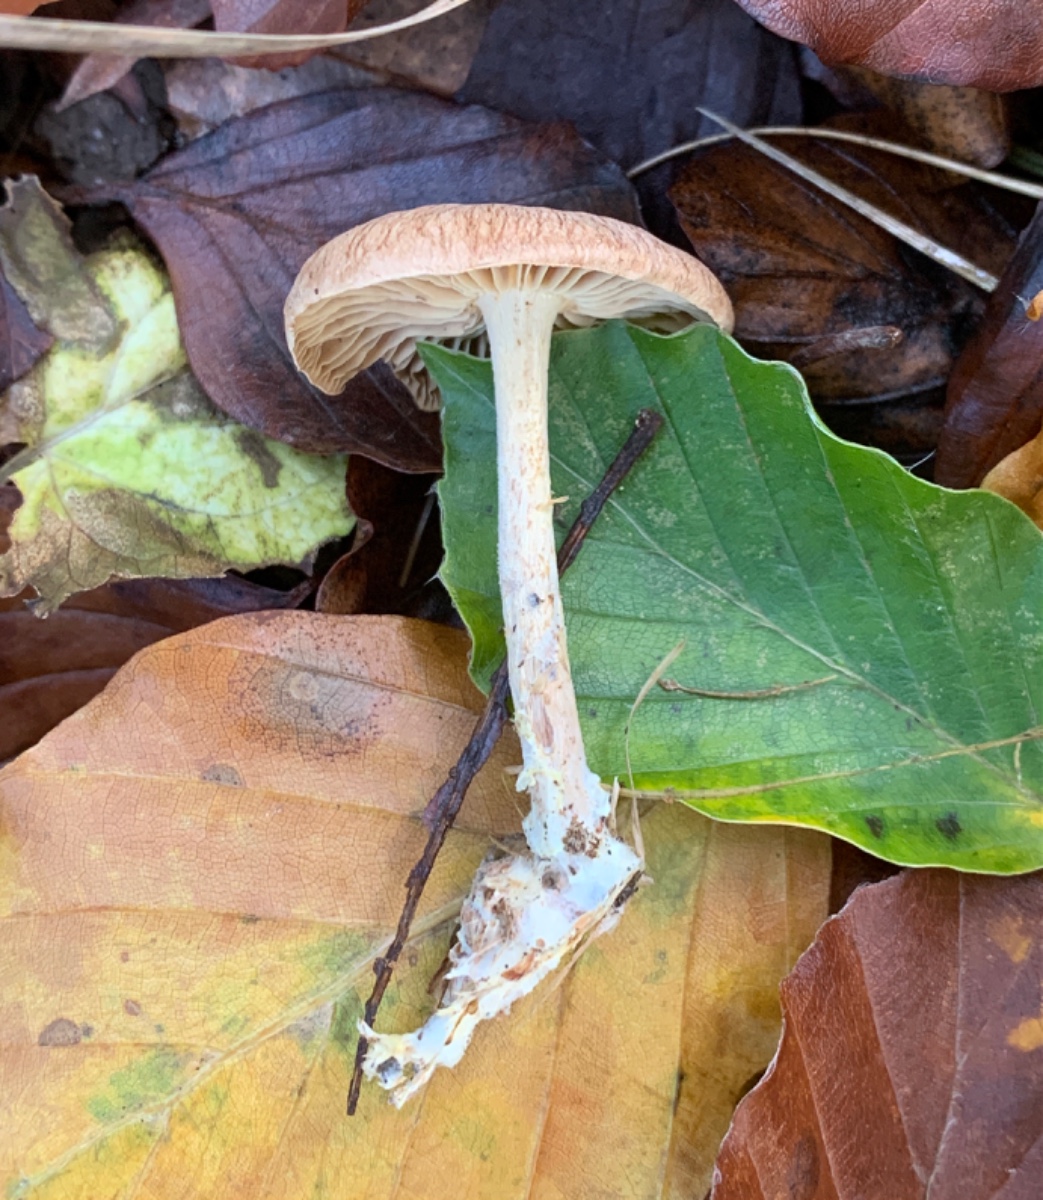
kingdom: Fungi
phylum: Basidiomycota
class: Agaricomycetes
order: Agaricales
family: Omphalotaceae
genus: Collybiopsis
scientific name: Collybiopsis peronata
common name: bestøvlet fladhat
